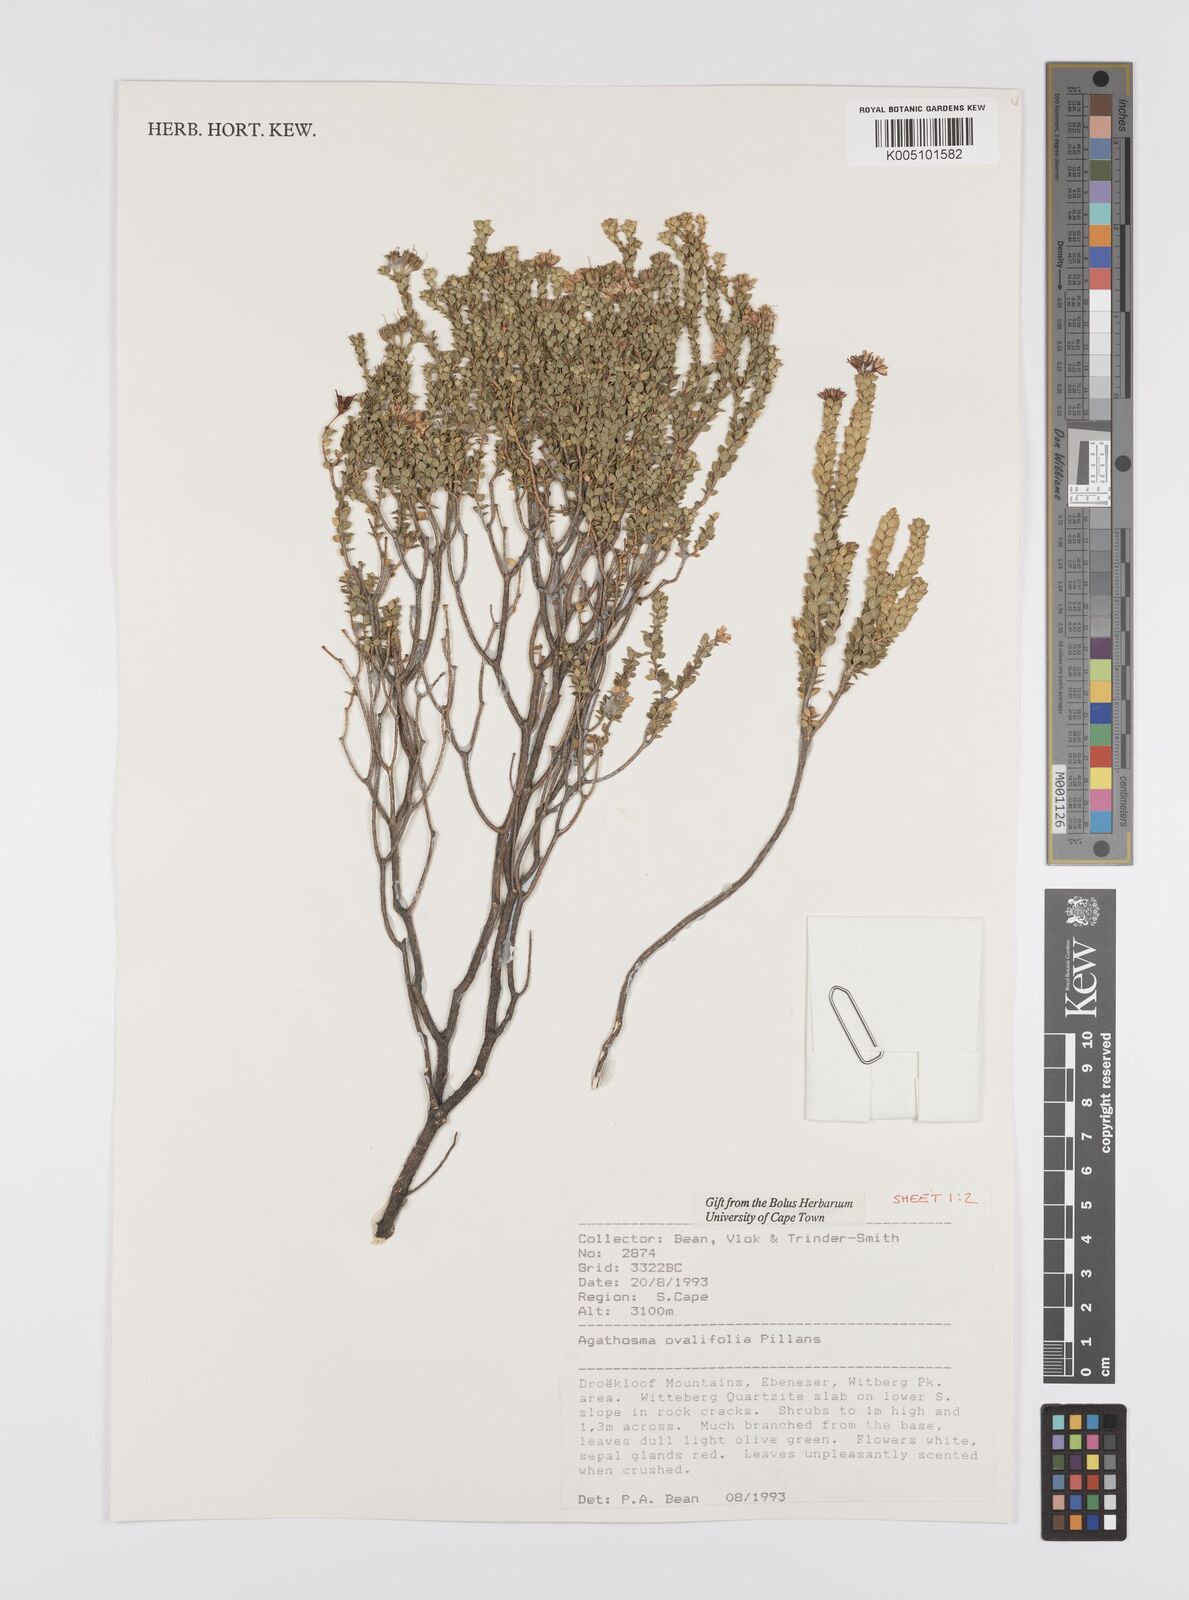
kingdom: Plantae
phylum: Tracheophyta
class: Magnoliopsida
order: Sapindales
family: Rutaceae
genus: Agathosma
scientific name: Agathosma ovalifolia
